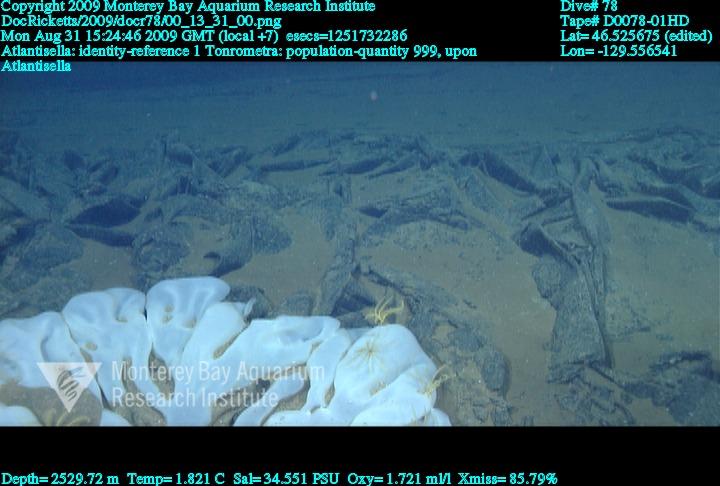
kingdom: Animalia
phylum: Porifera
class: Hexactinellida
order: Lyssacinosida
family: Euplectellidae
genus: Atlantisella
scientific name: Atlantisella
